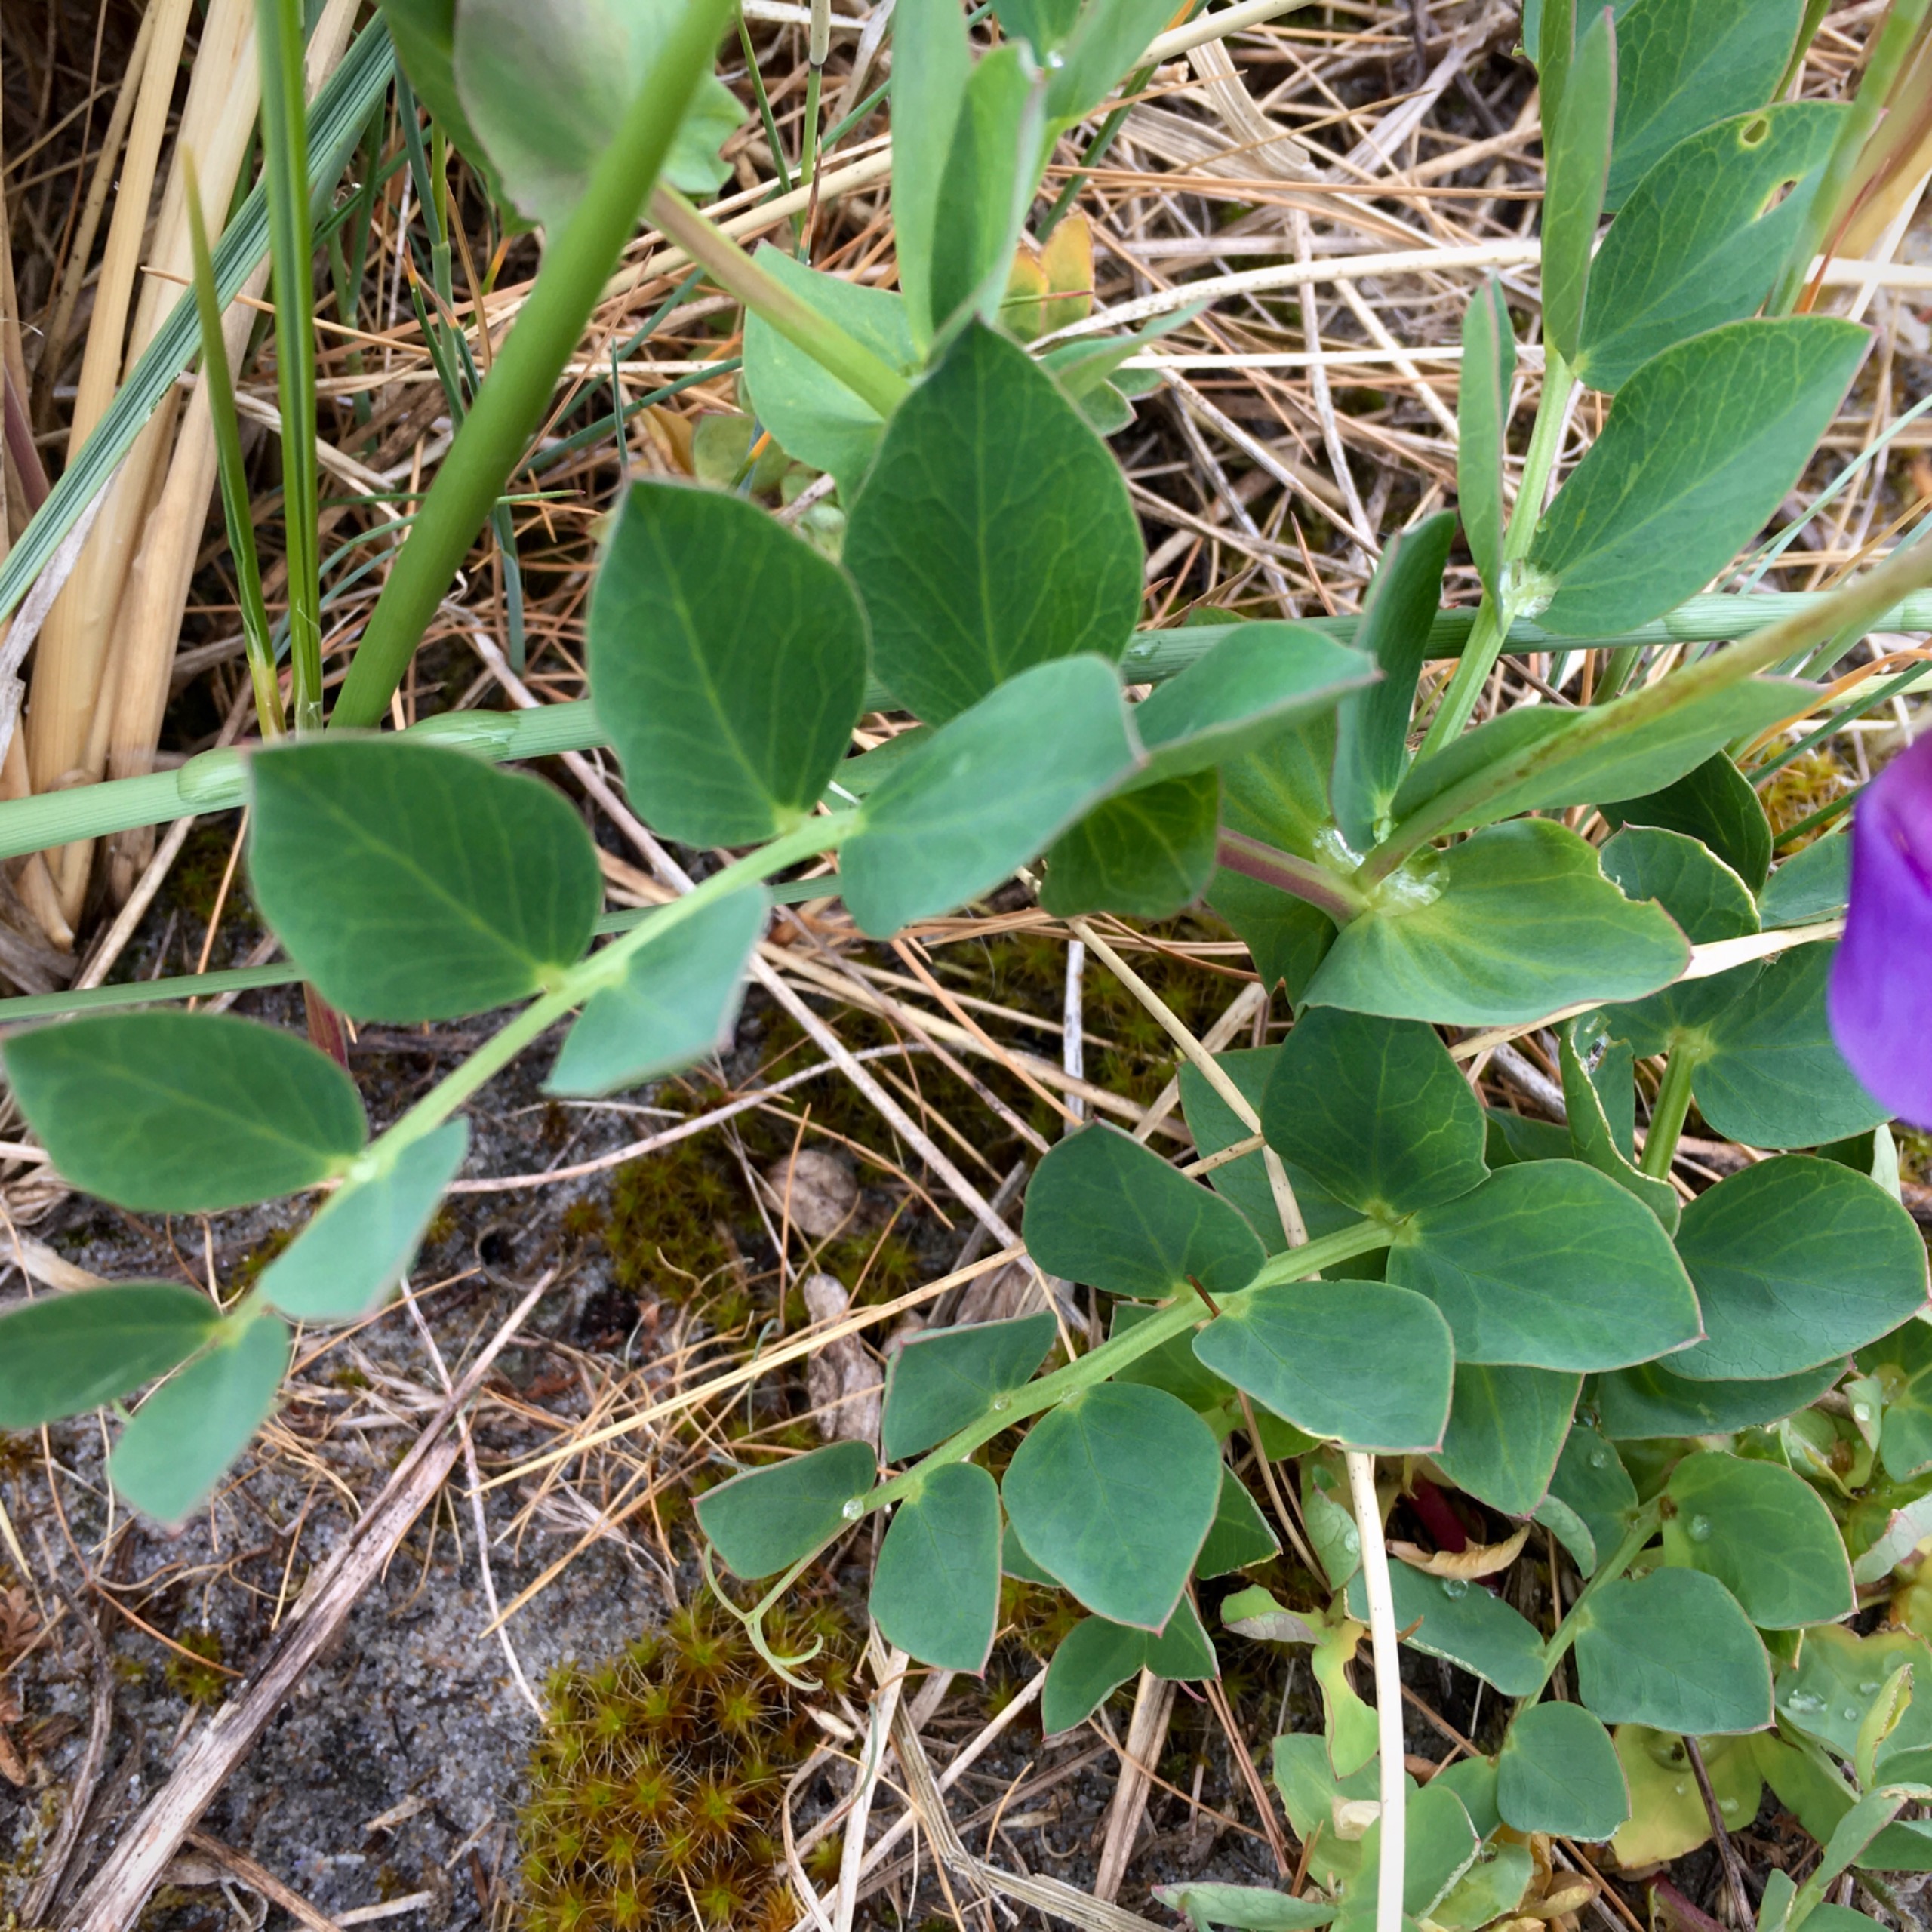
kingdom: Plantae
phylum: Tracheophyta
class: Magnoliopsida
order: Fabales
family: Fabaceae
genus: Lathyrus
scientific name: Lathyrus japonicus
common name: Strand-fladbælg
